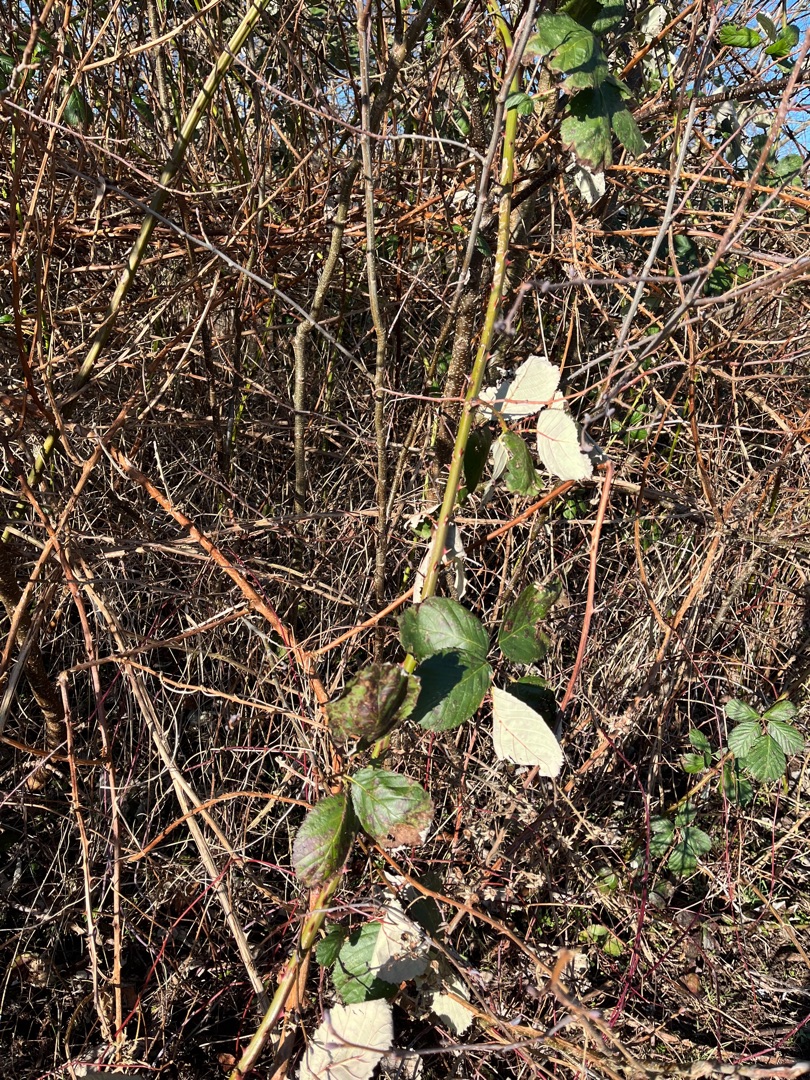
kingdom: Plantae
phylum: Tracheophyta
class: Magnoliopsida
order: Rosales
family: Rosaceae
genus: Rubus
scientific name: Rubus armeniacus
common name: Armensk brombær
